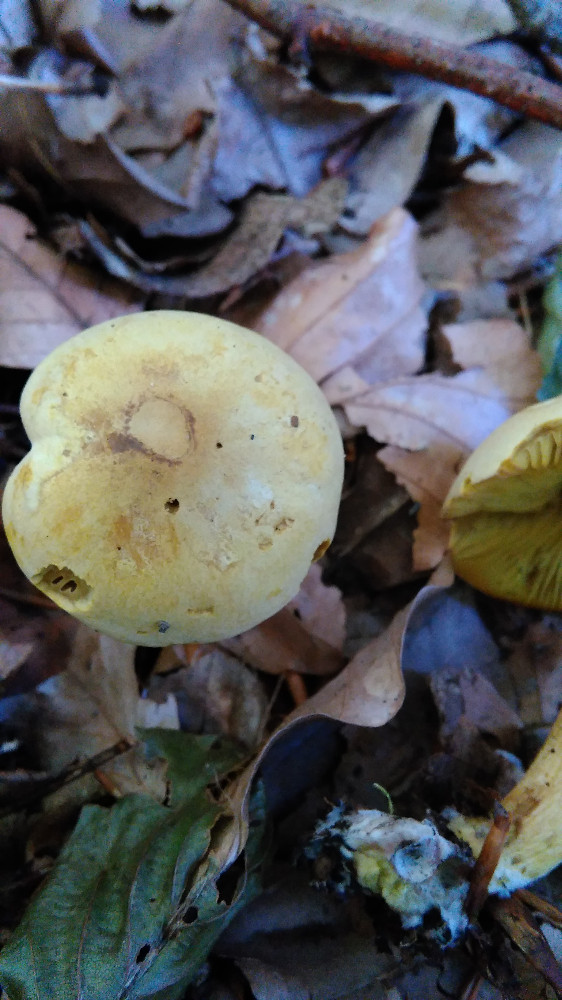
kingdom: Fungi
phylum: Basidiomycota
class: Agaricomycetes
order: Agaricales
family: Tricholomataceae
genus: Tricholoma
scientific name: Tricholoma sulphureum
